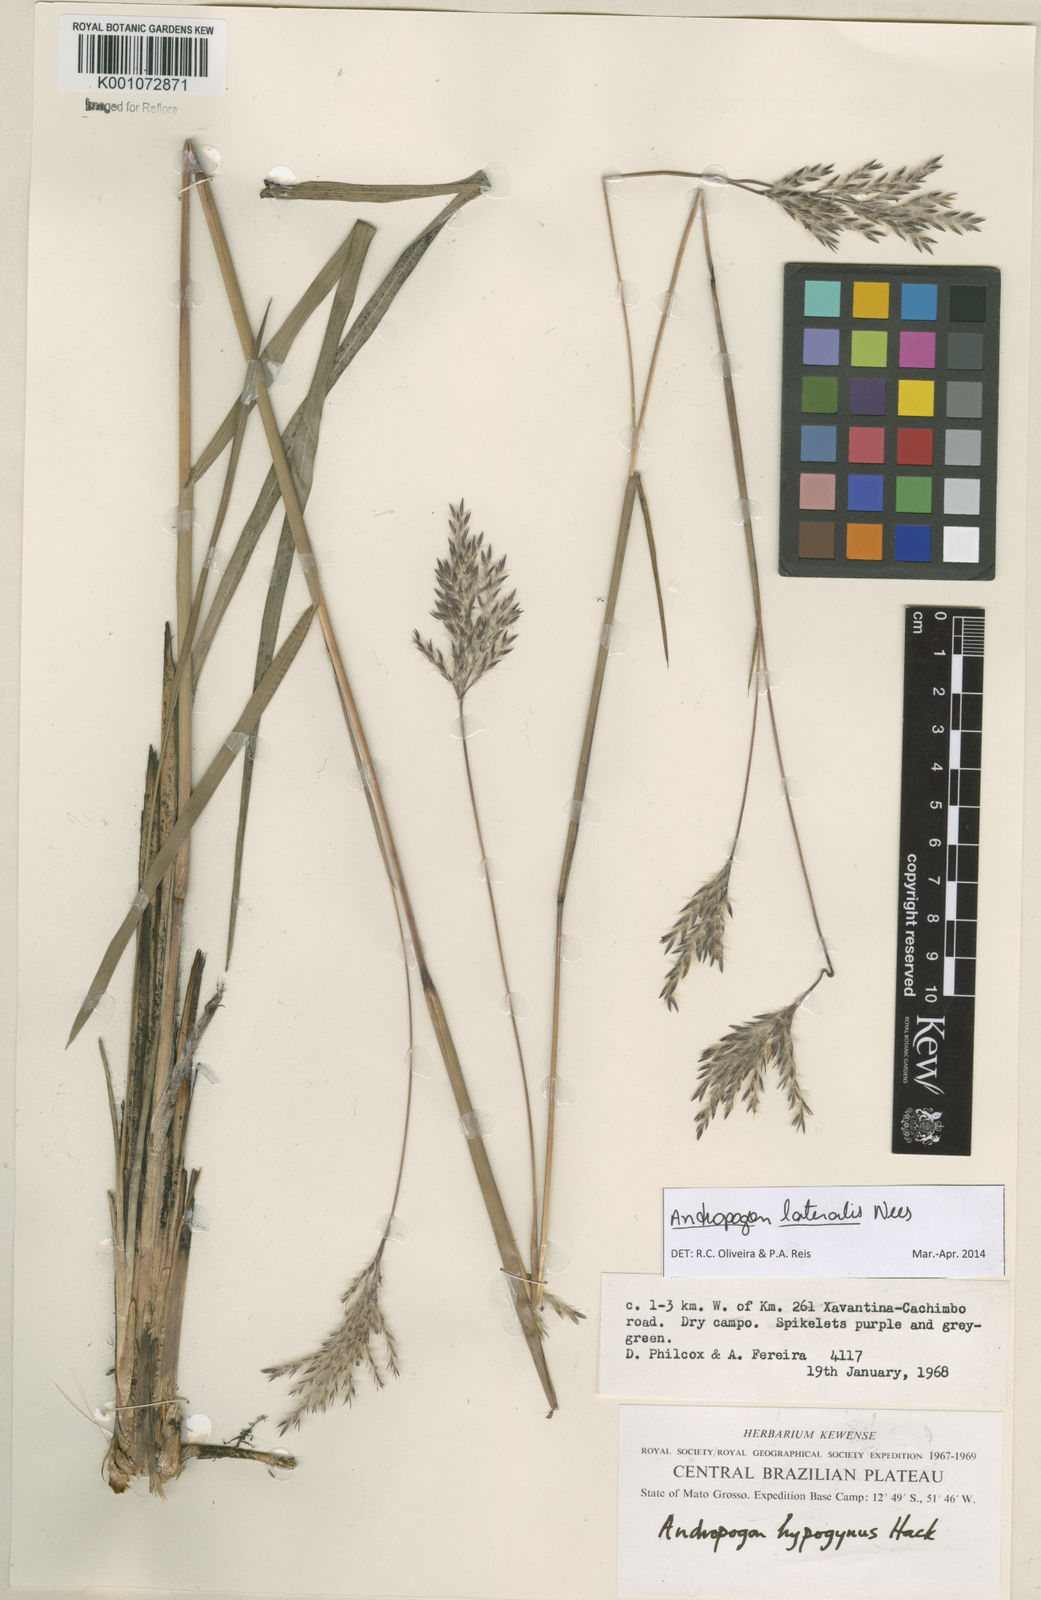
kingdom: Plantae
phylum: Tracheophyta
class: Liliopsida
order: Poales
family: Poaceae
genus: Andropogon
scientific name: Andropogon lateralis
